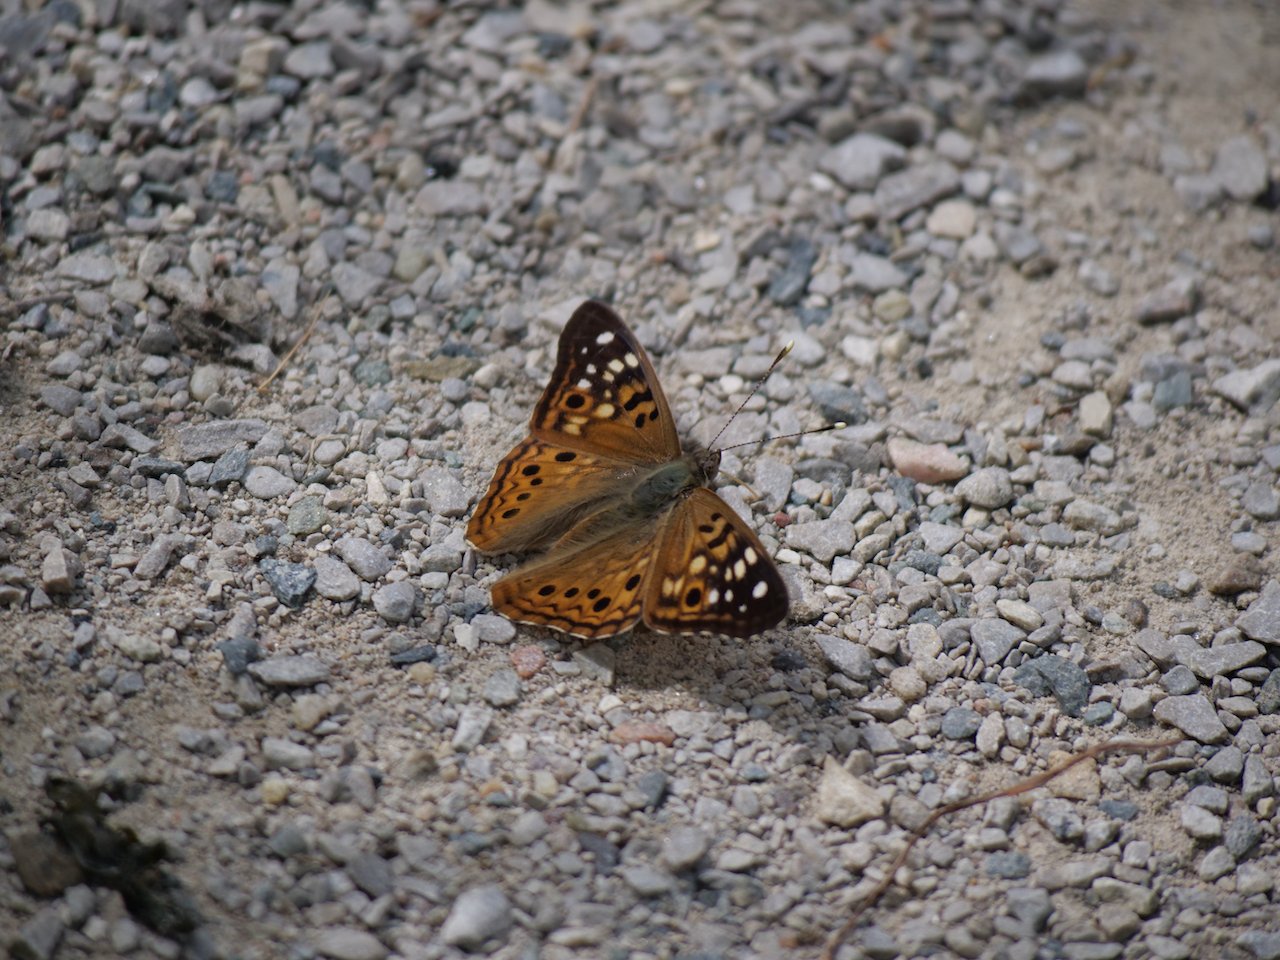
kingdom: Animalia
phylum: Arthropoda
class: Insecta
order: Lepidoptera
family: Nymphalidae
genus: Asterocampa
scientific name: Asterocampa celtis
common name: Hackberry Emperor
